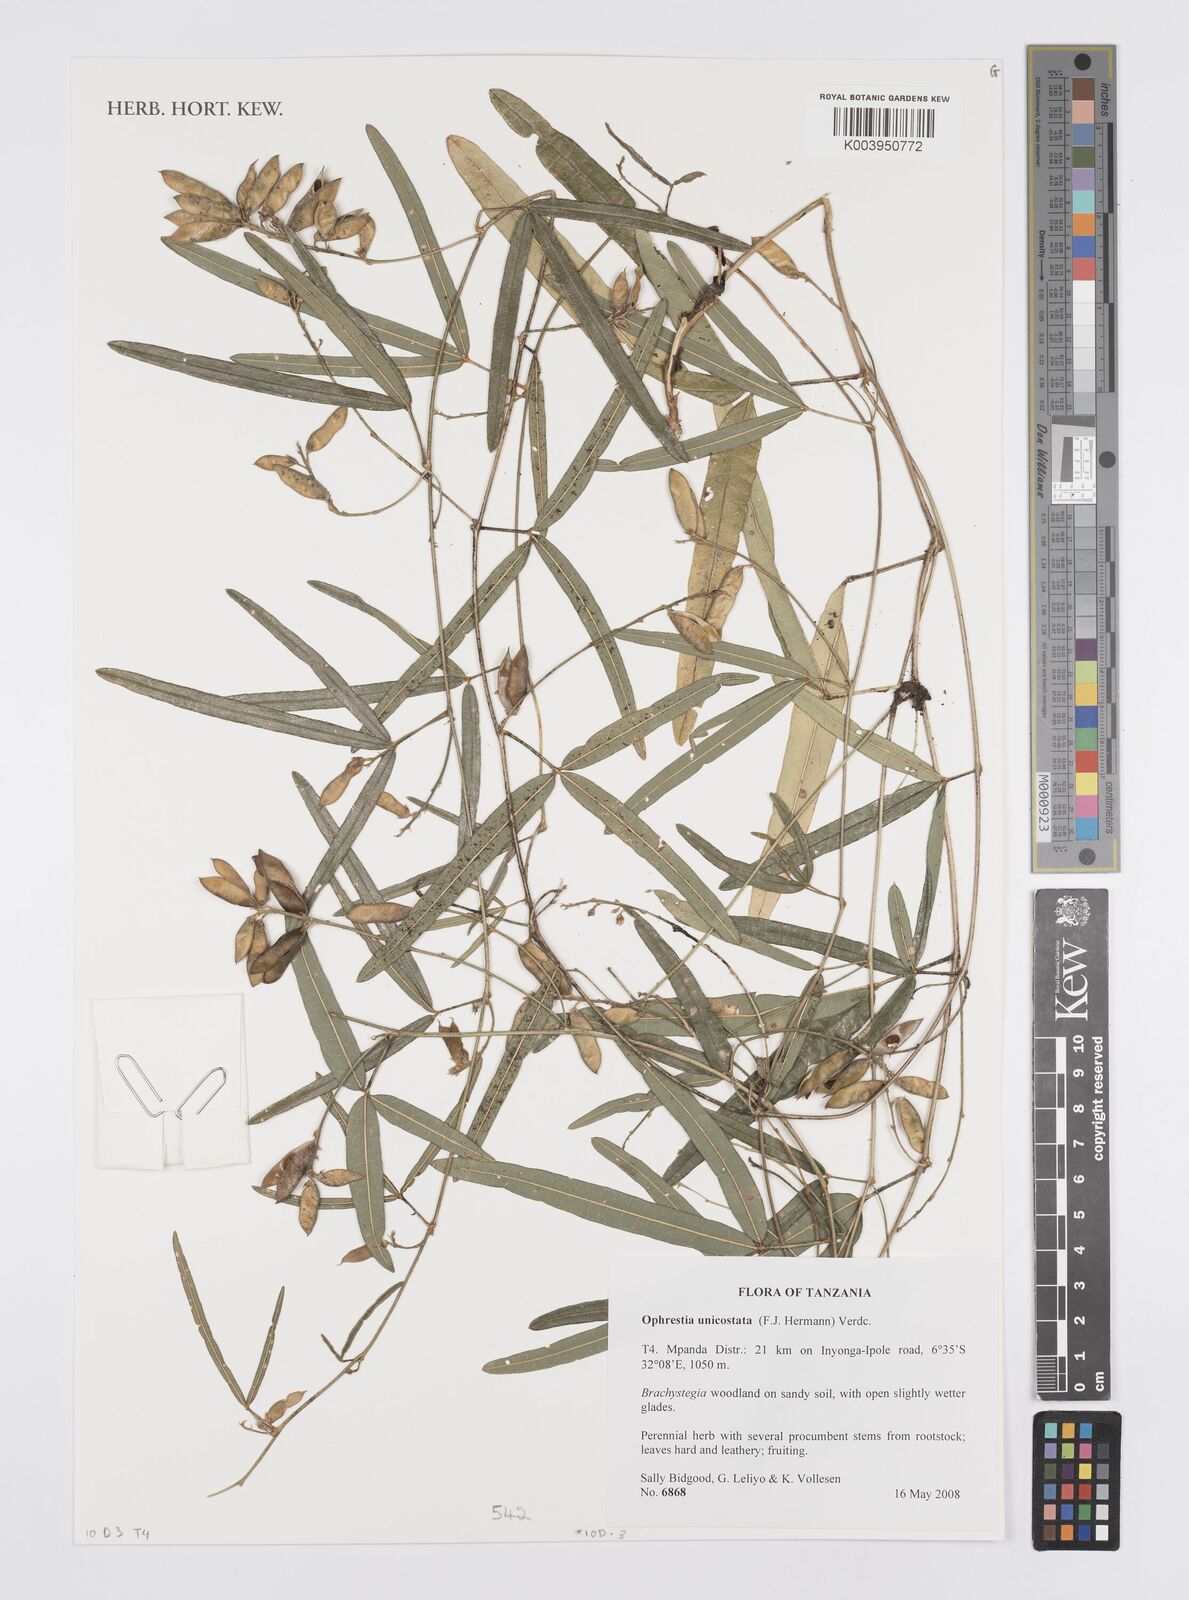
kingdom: Plantae
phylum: Tracheophyta
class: Magnoliopsida
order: Fabales
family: Fabaceae
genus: Ophrestia
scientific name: Ophrestia unicostata
